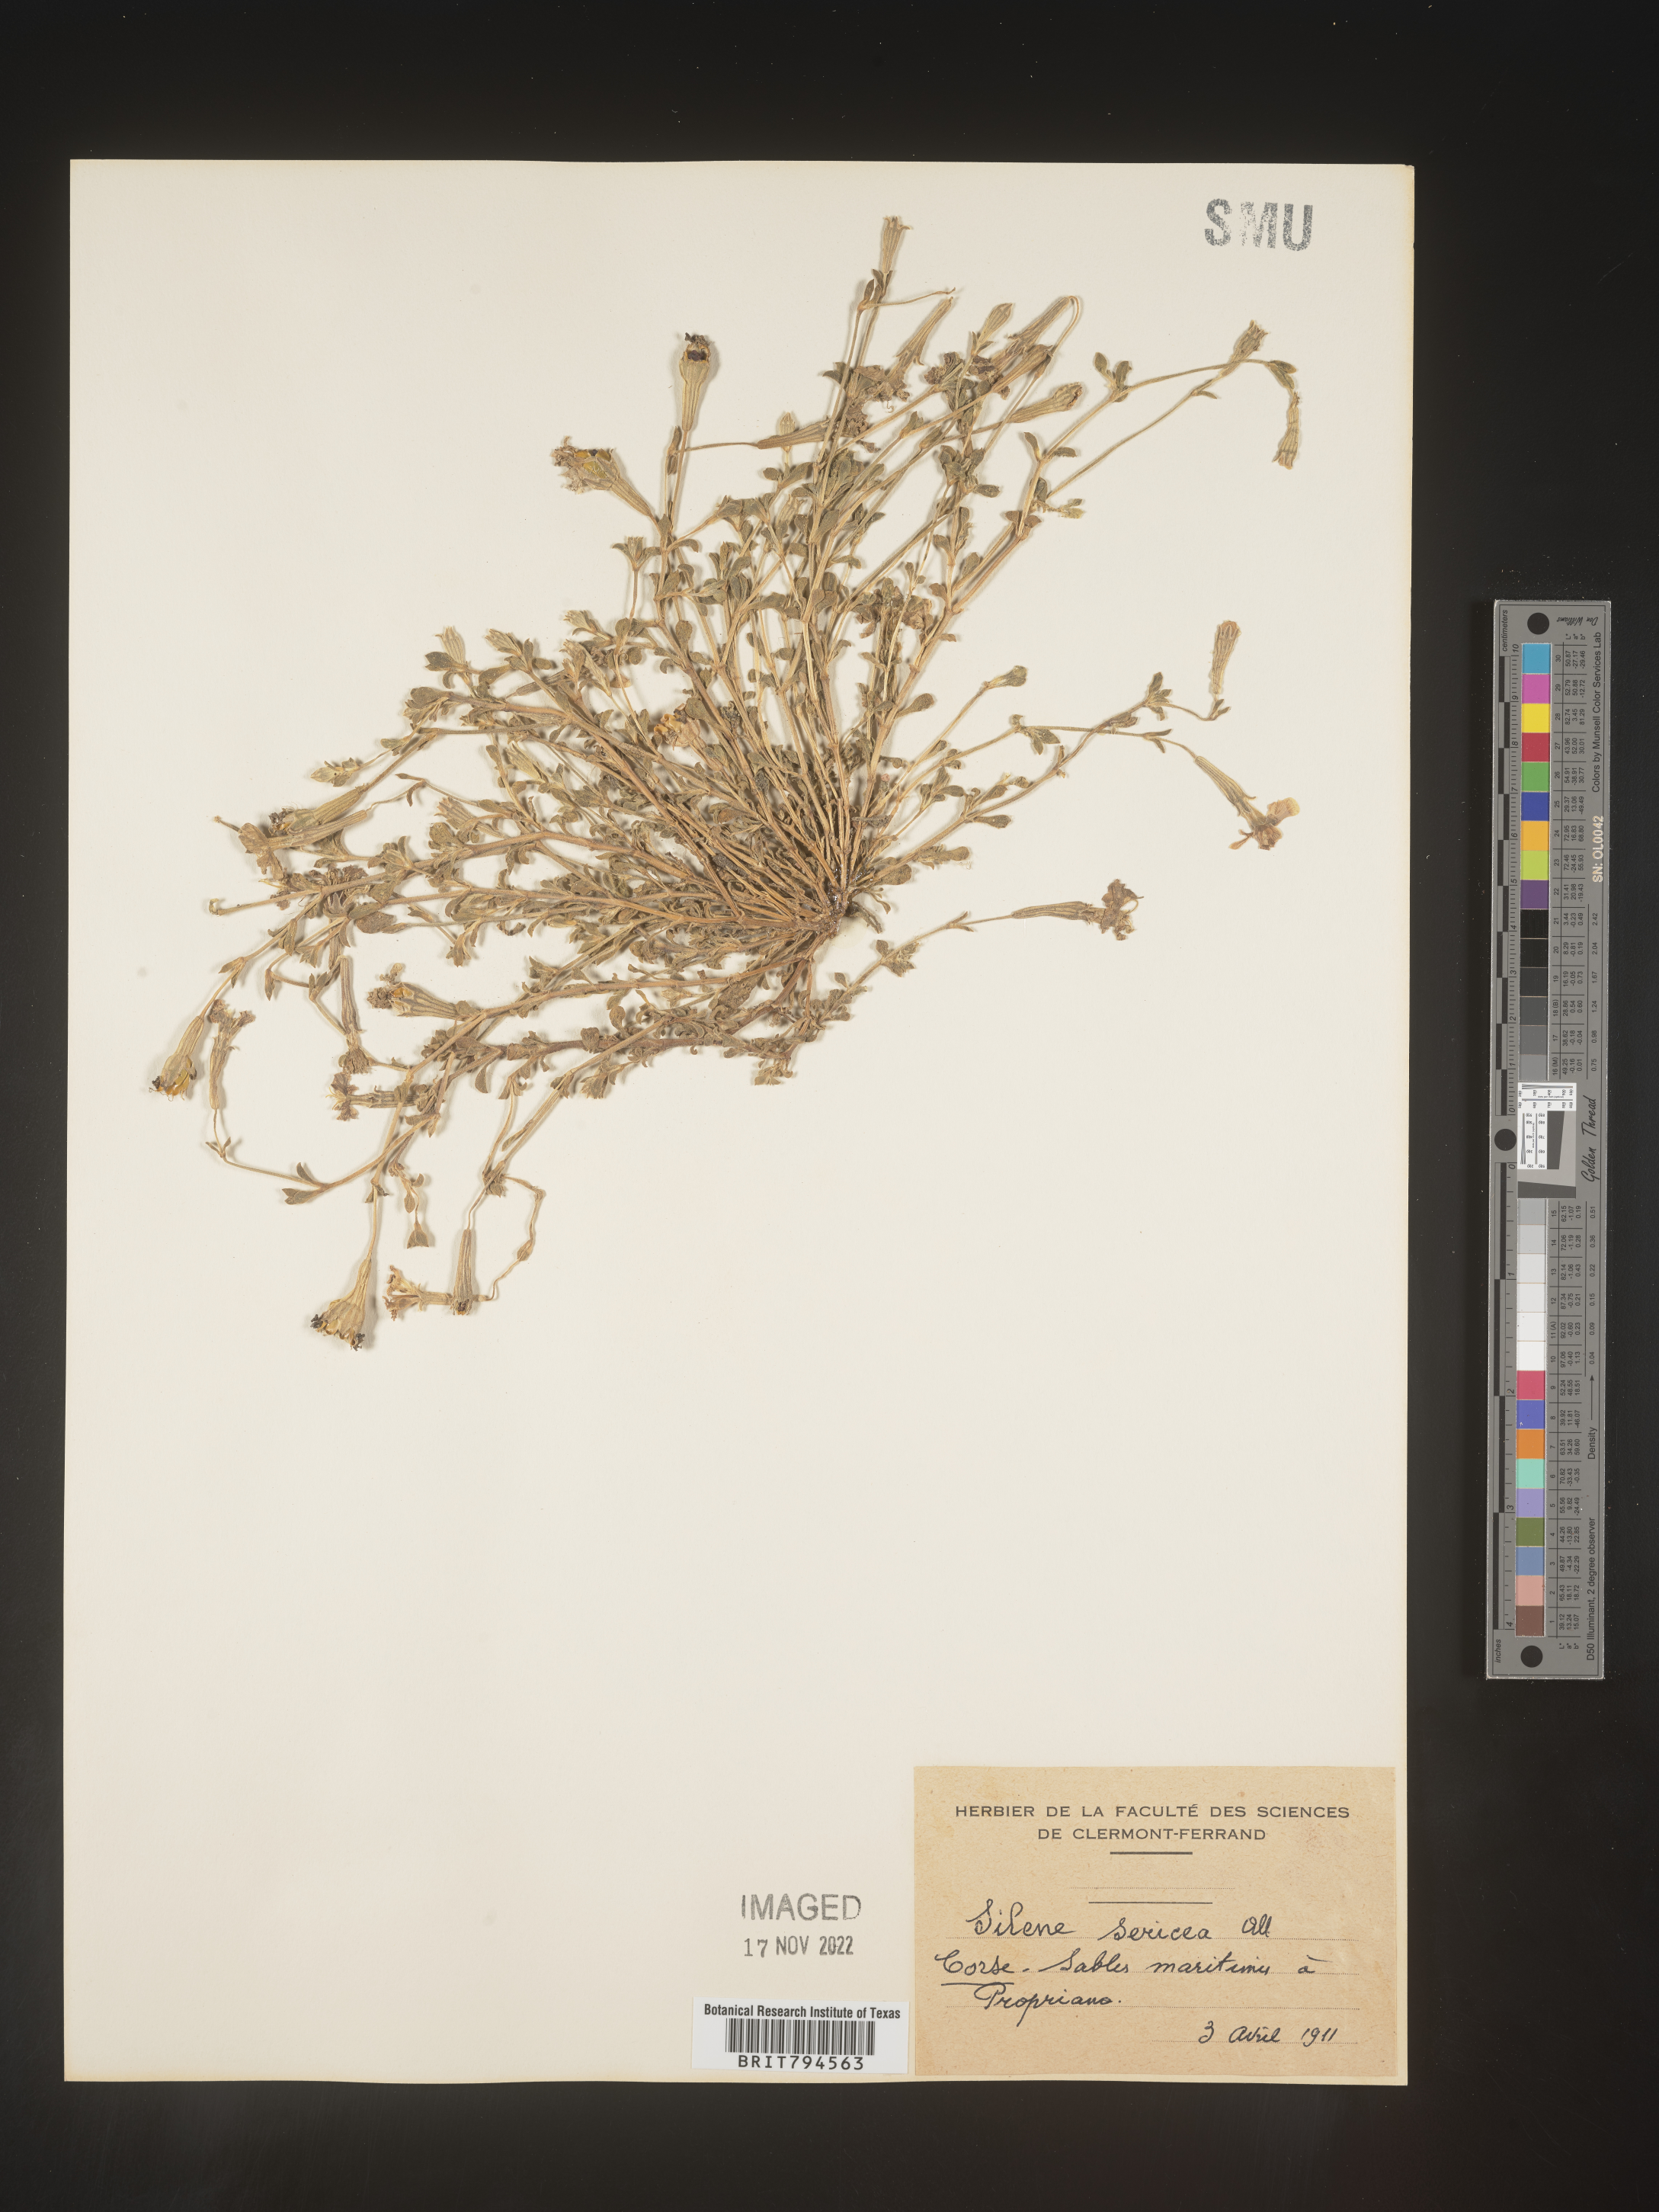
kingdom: Plantae
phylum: Tracheophyta
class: Magnoliopsida
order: Caryophyllales
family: Caryophyllaceae
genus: Silene
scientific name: Silene sericea
